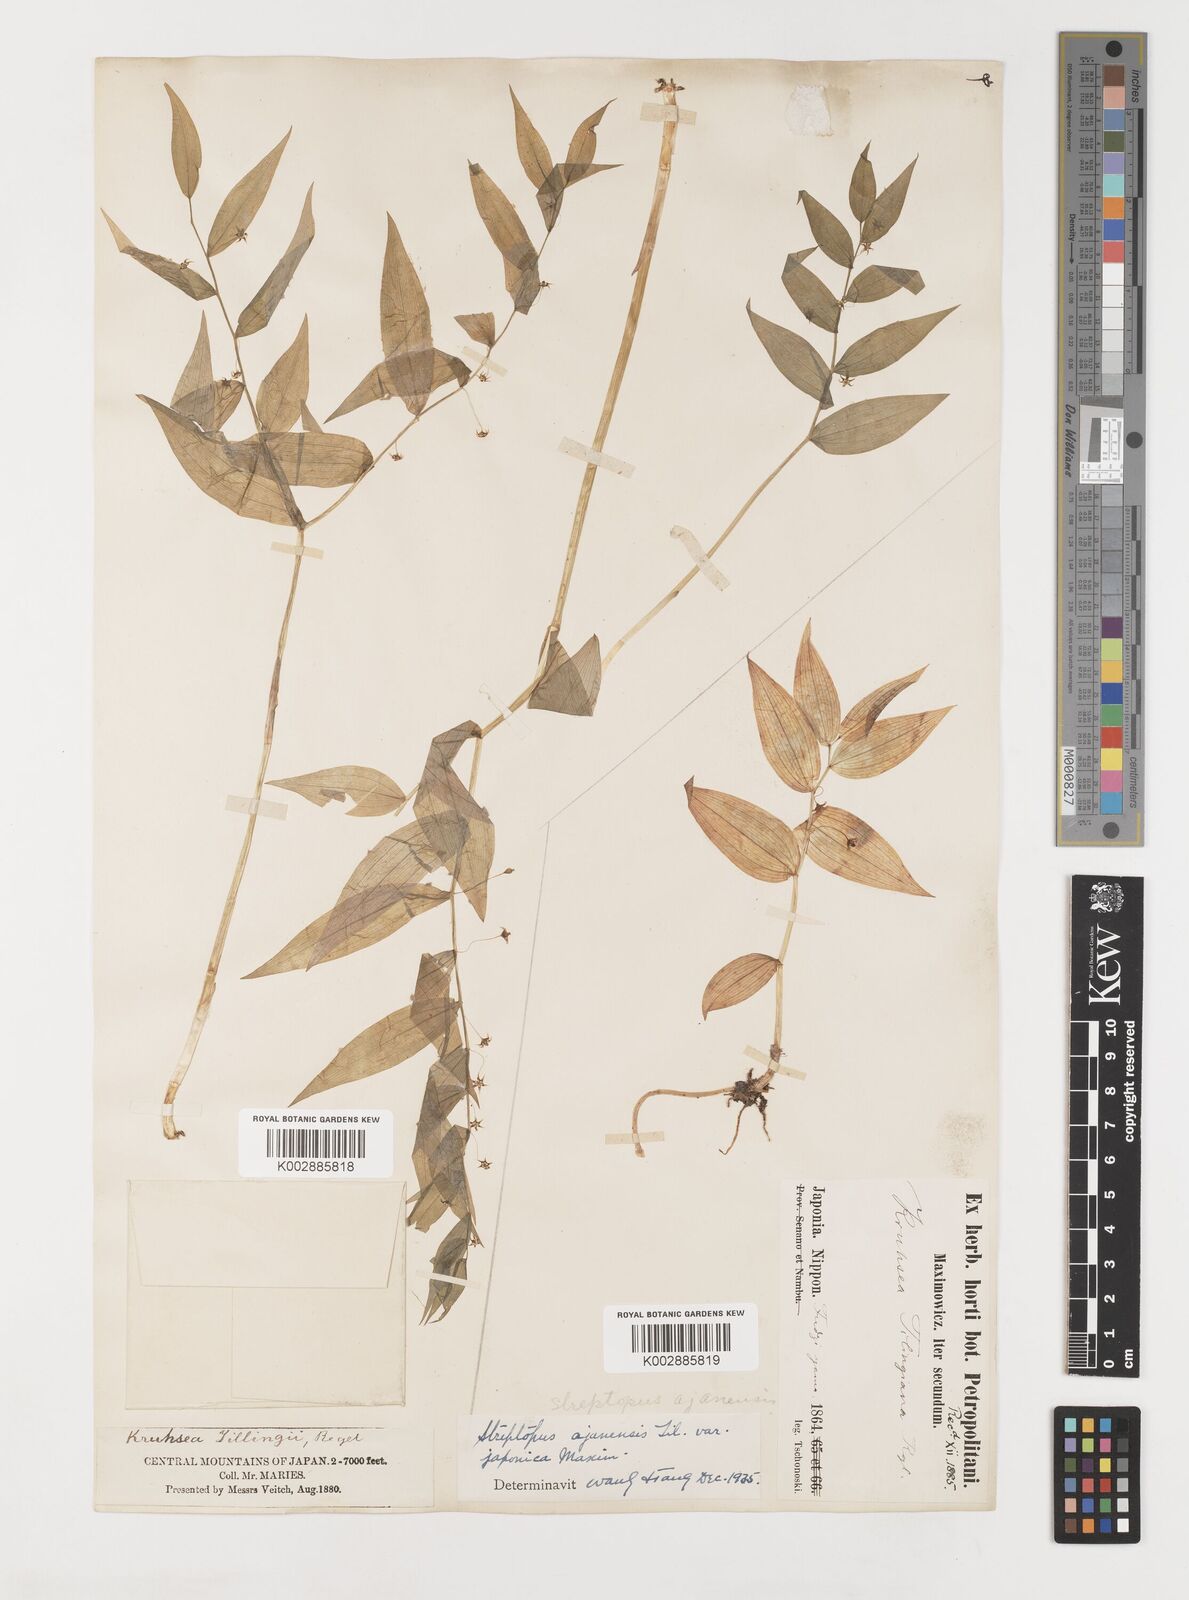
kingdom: Plantae
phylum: Tracheophyta
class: Liliopsida
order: Liliales
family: Liliaceae
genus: Streptopus
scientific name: Streptopus
